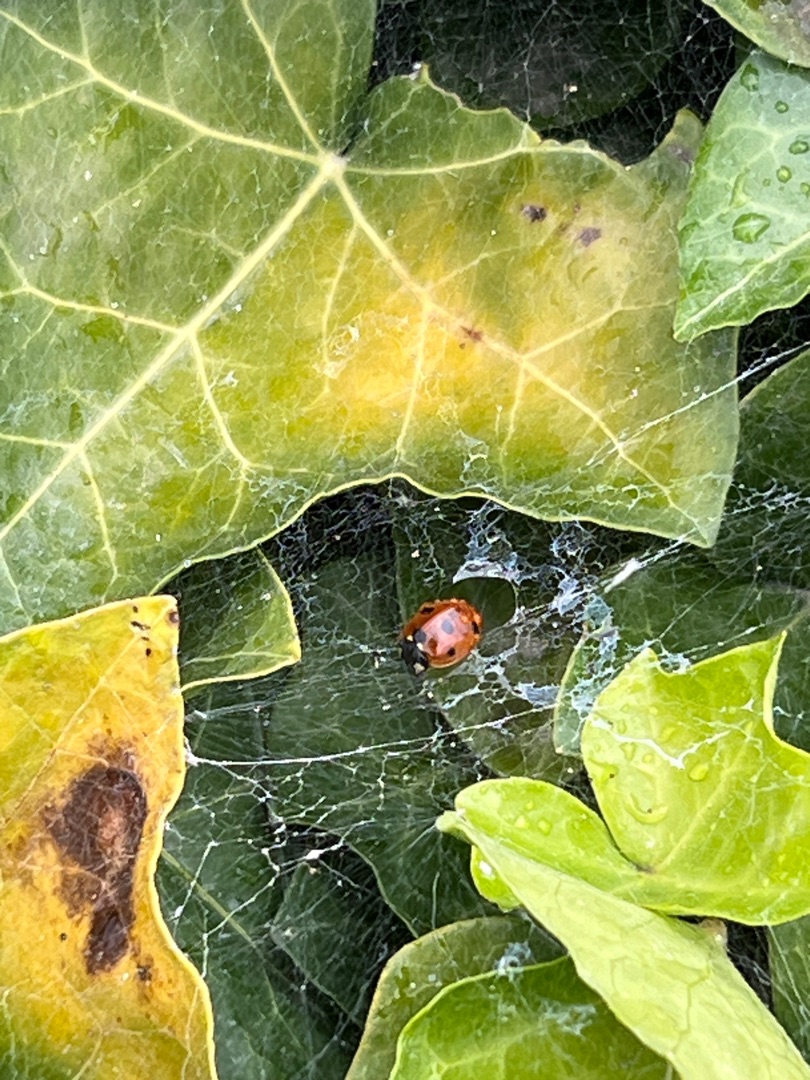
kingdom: Animalia
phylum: Arthropoda
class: Insecta
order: Coleoptera
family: Coccinellidae
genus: Coccinella
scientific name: Coccinella septempunctata
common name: Syvplettet mariehøne
